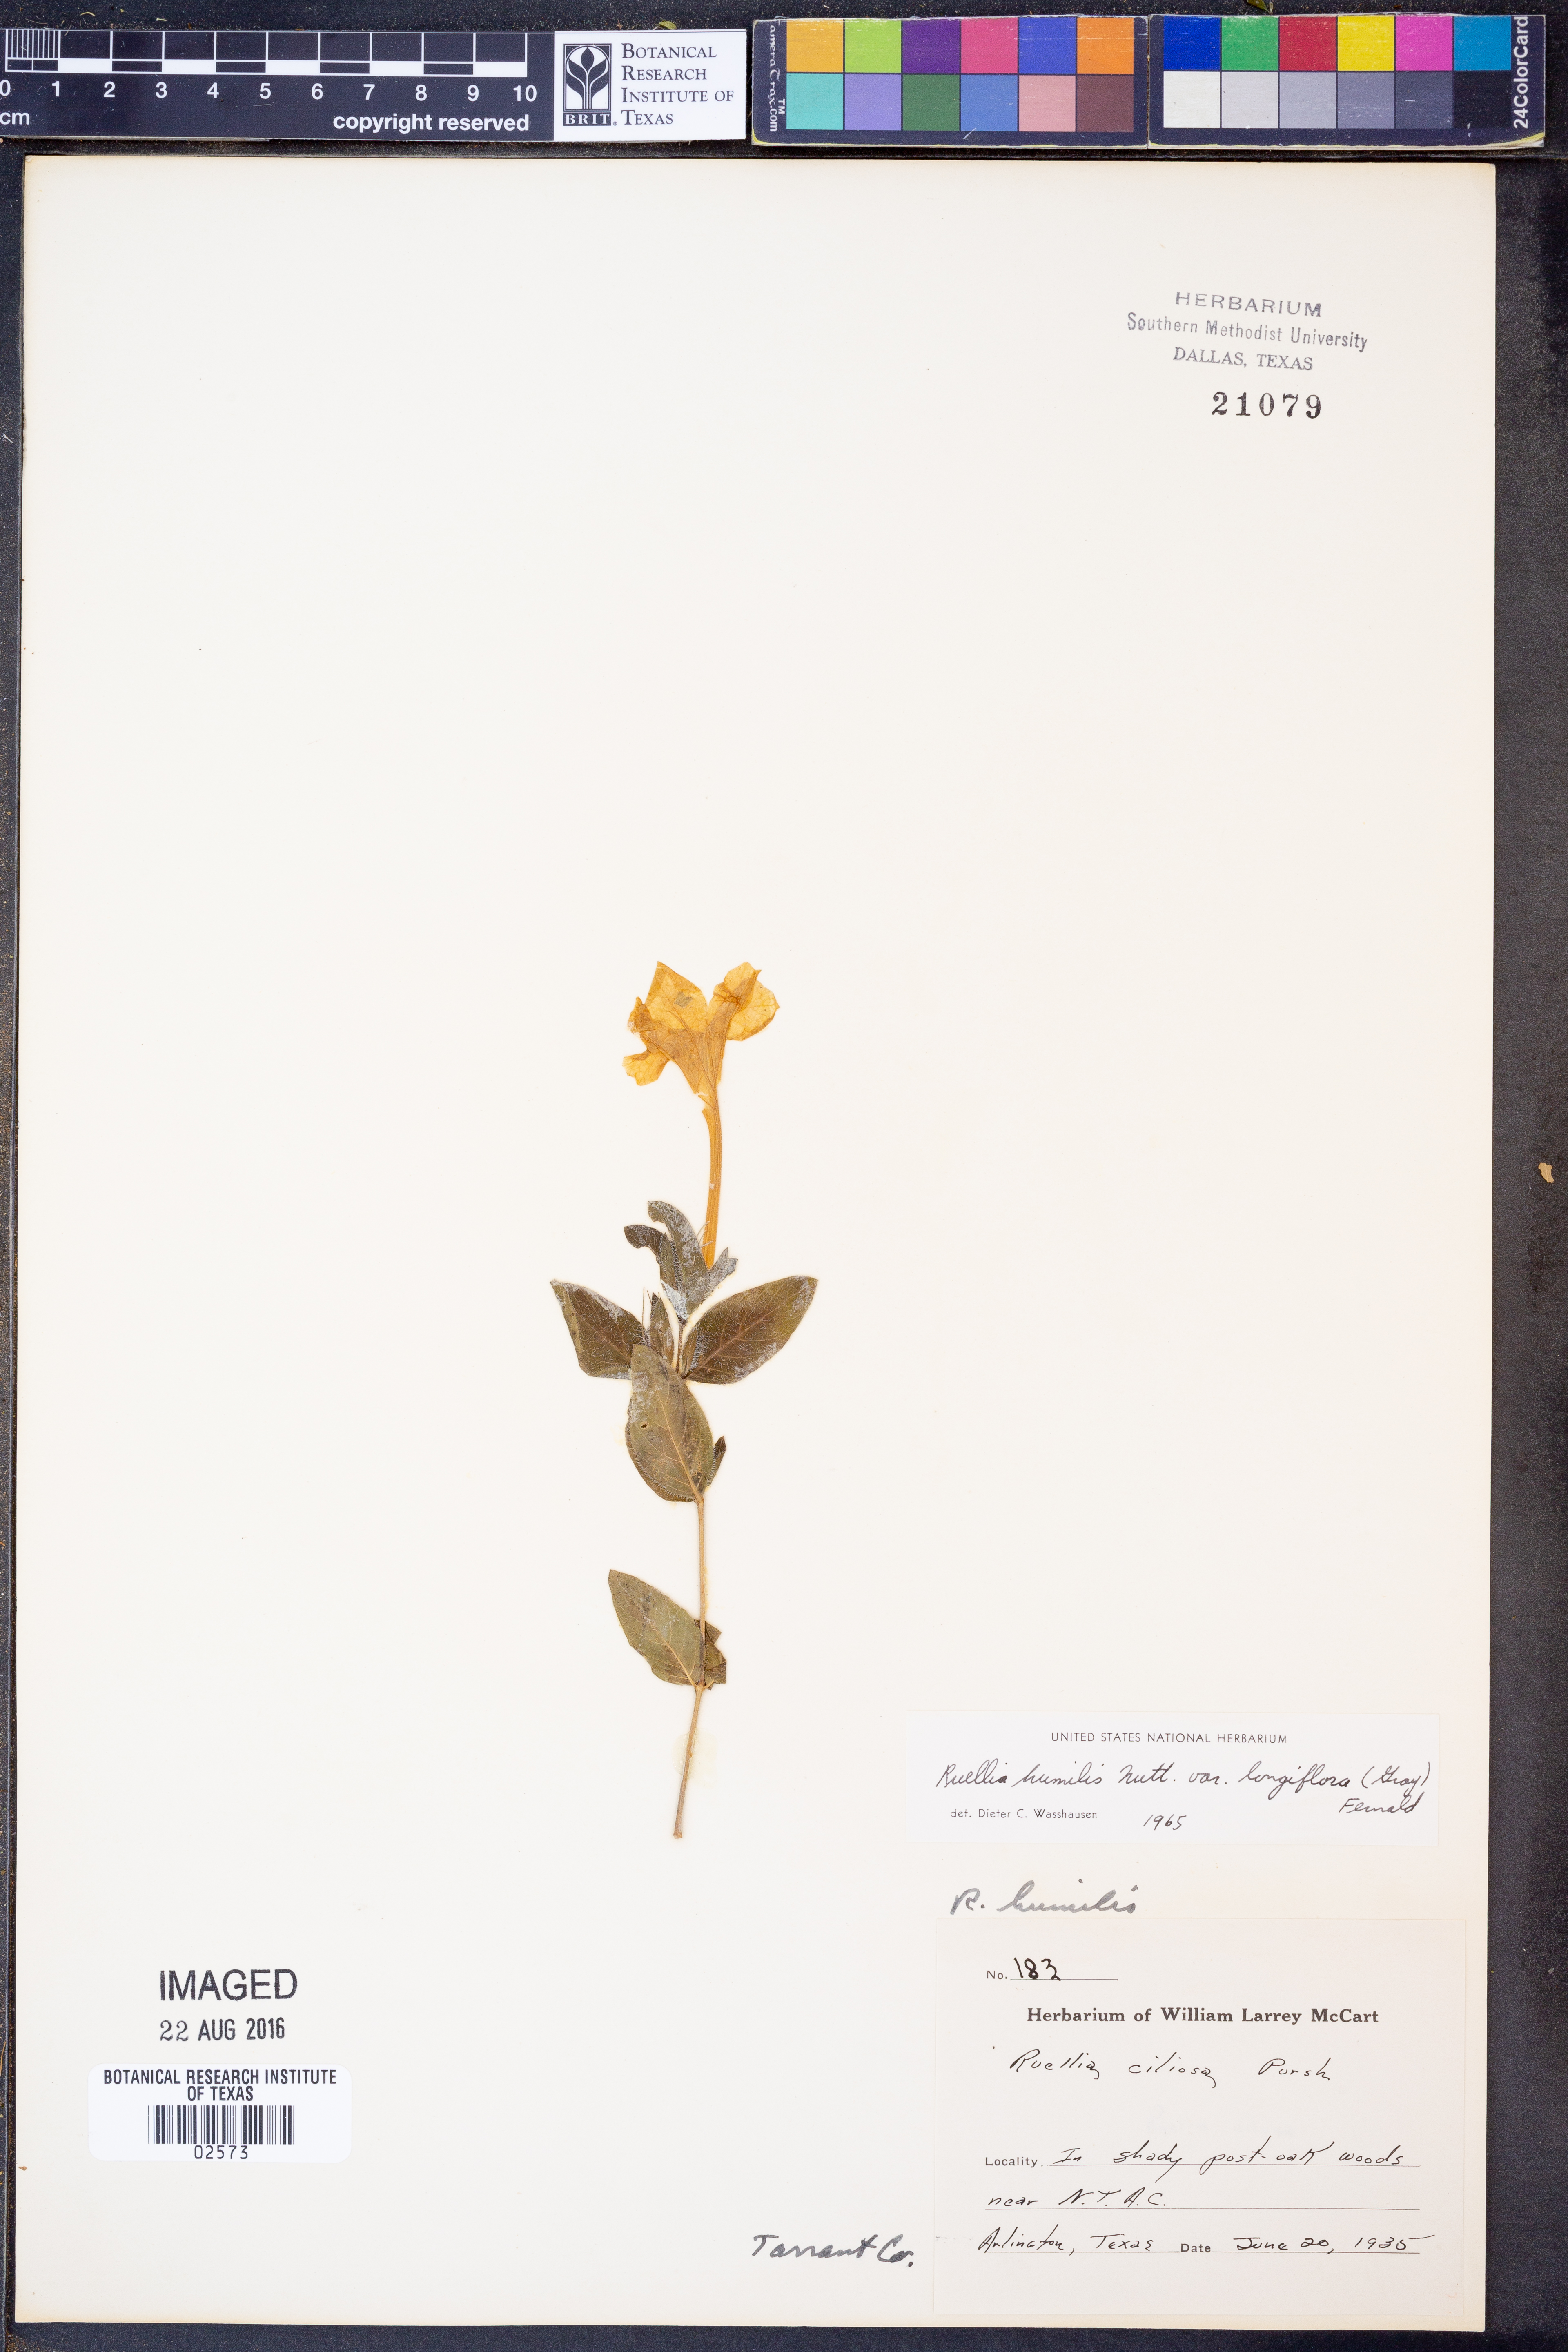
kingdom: Plantae
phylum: Tracheophyta
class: Magnoliopsida
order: Lamiales
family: Acanthaceae
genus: Ruellia
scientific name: Ruellia humilis
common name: Fringe-leaf ruellia
